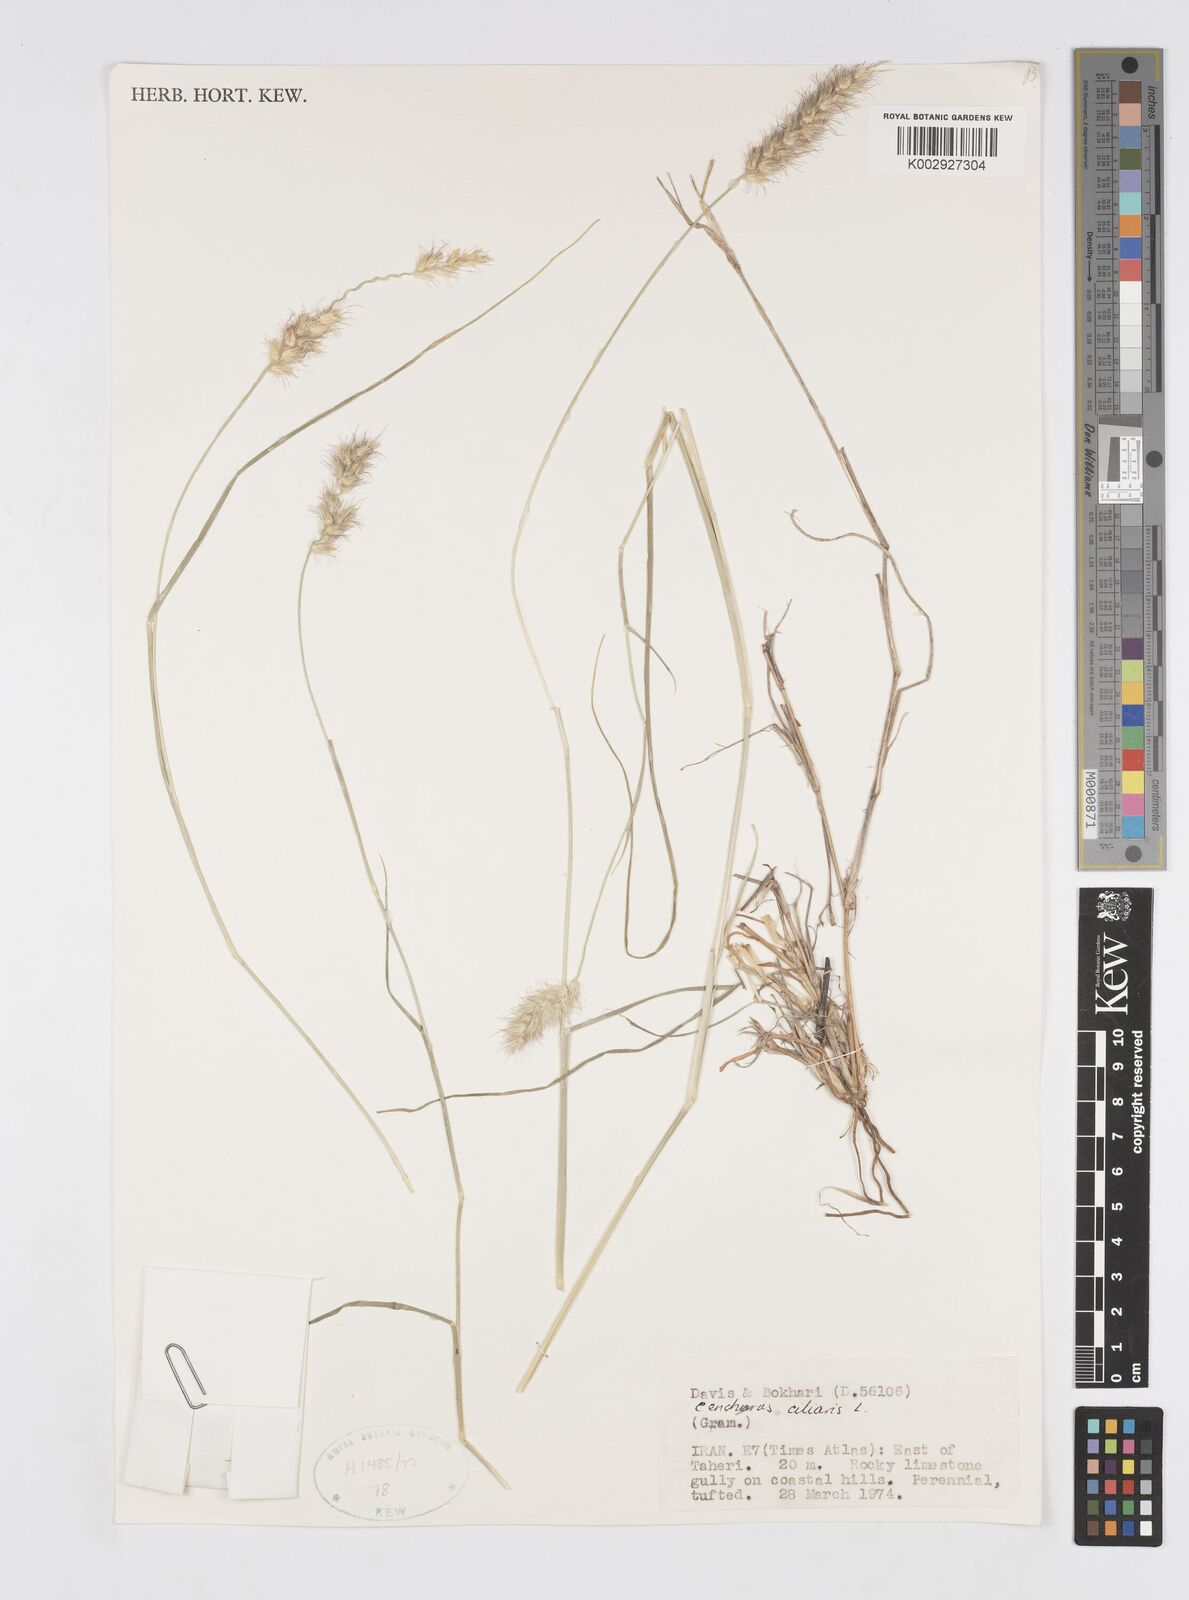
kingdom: Plantae
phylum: Tracheophyta
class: Liliopsida
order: Poales
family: Poaceae
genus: Cenchrus
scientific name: Cenchrus ciliaris
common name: Buffelgrass
